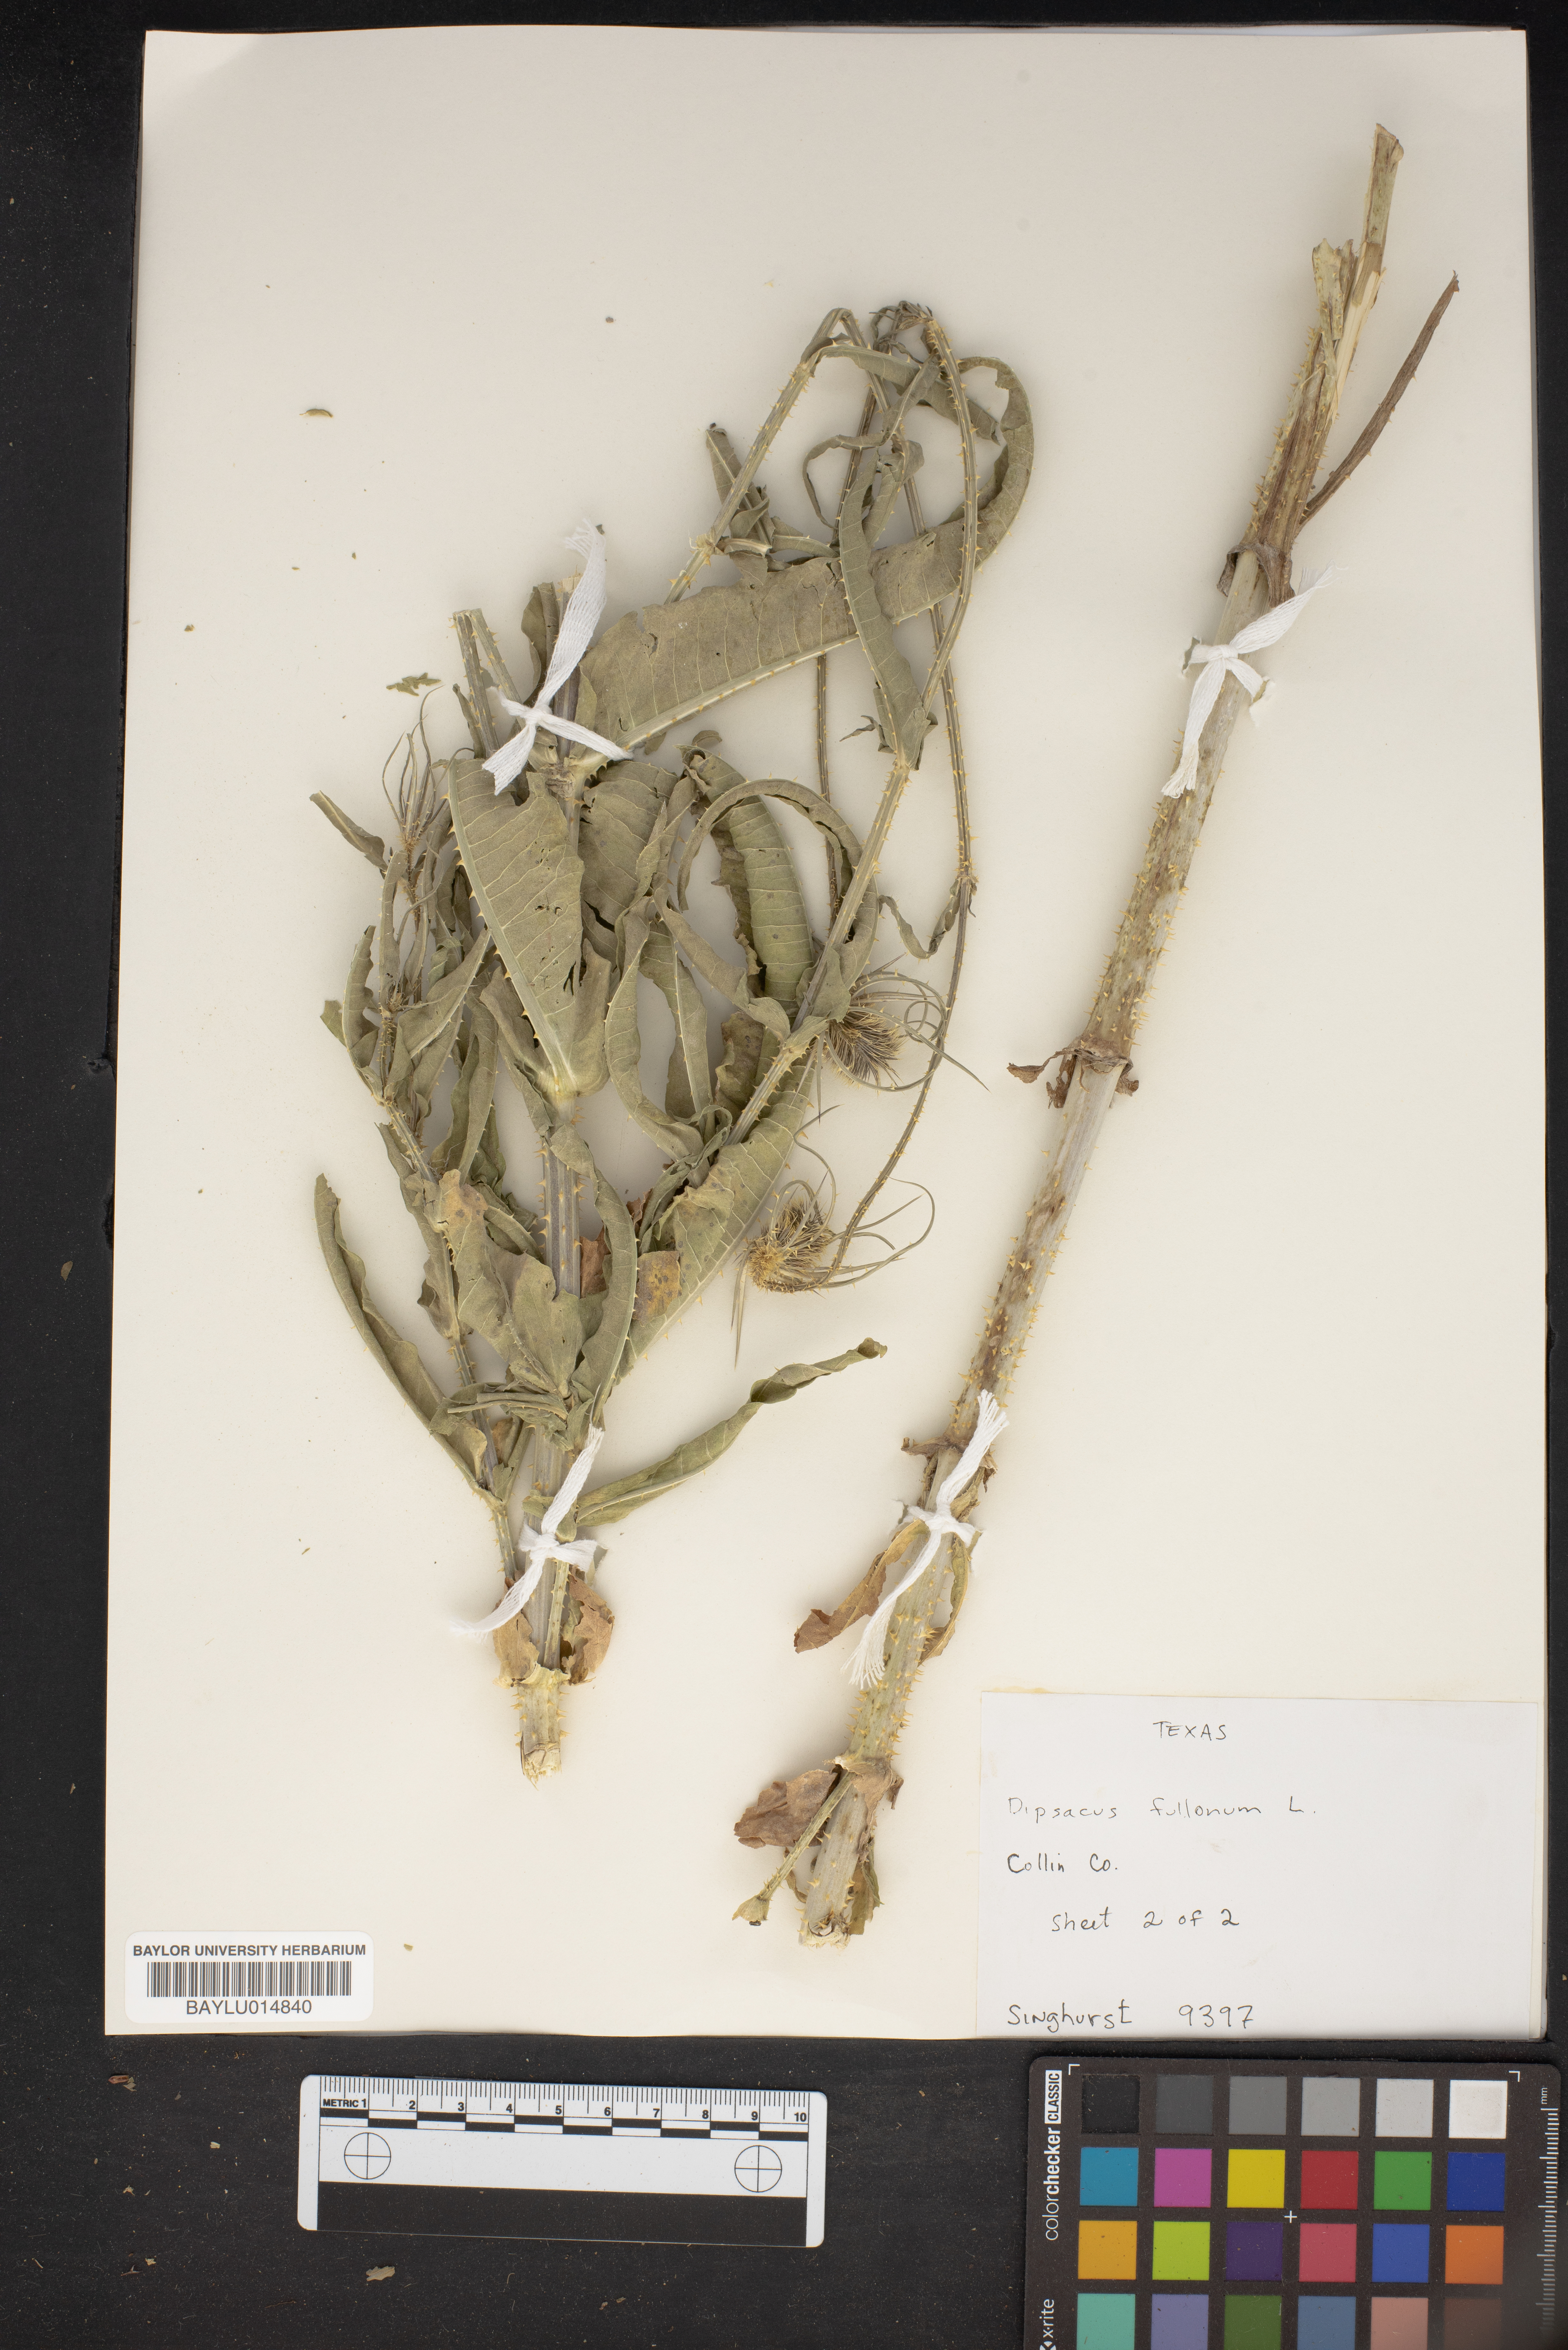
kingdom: Plantae
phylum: Tracheophyta
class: Magnoliopsida
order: Dipsacales
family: Caprifoliaceae
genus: Dipsacus
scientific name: Dipsacus fullonum
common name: Teasel
